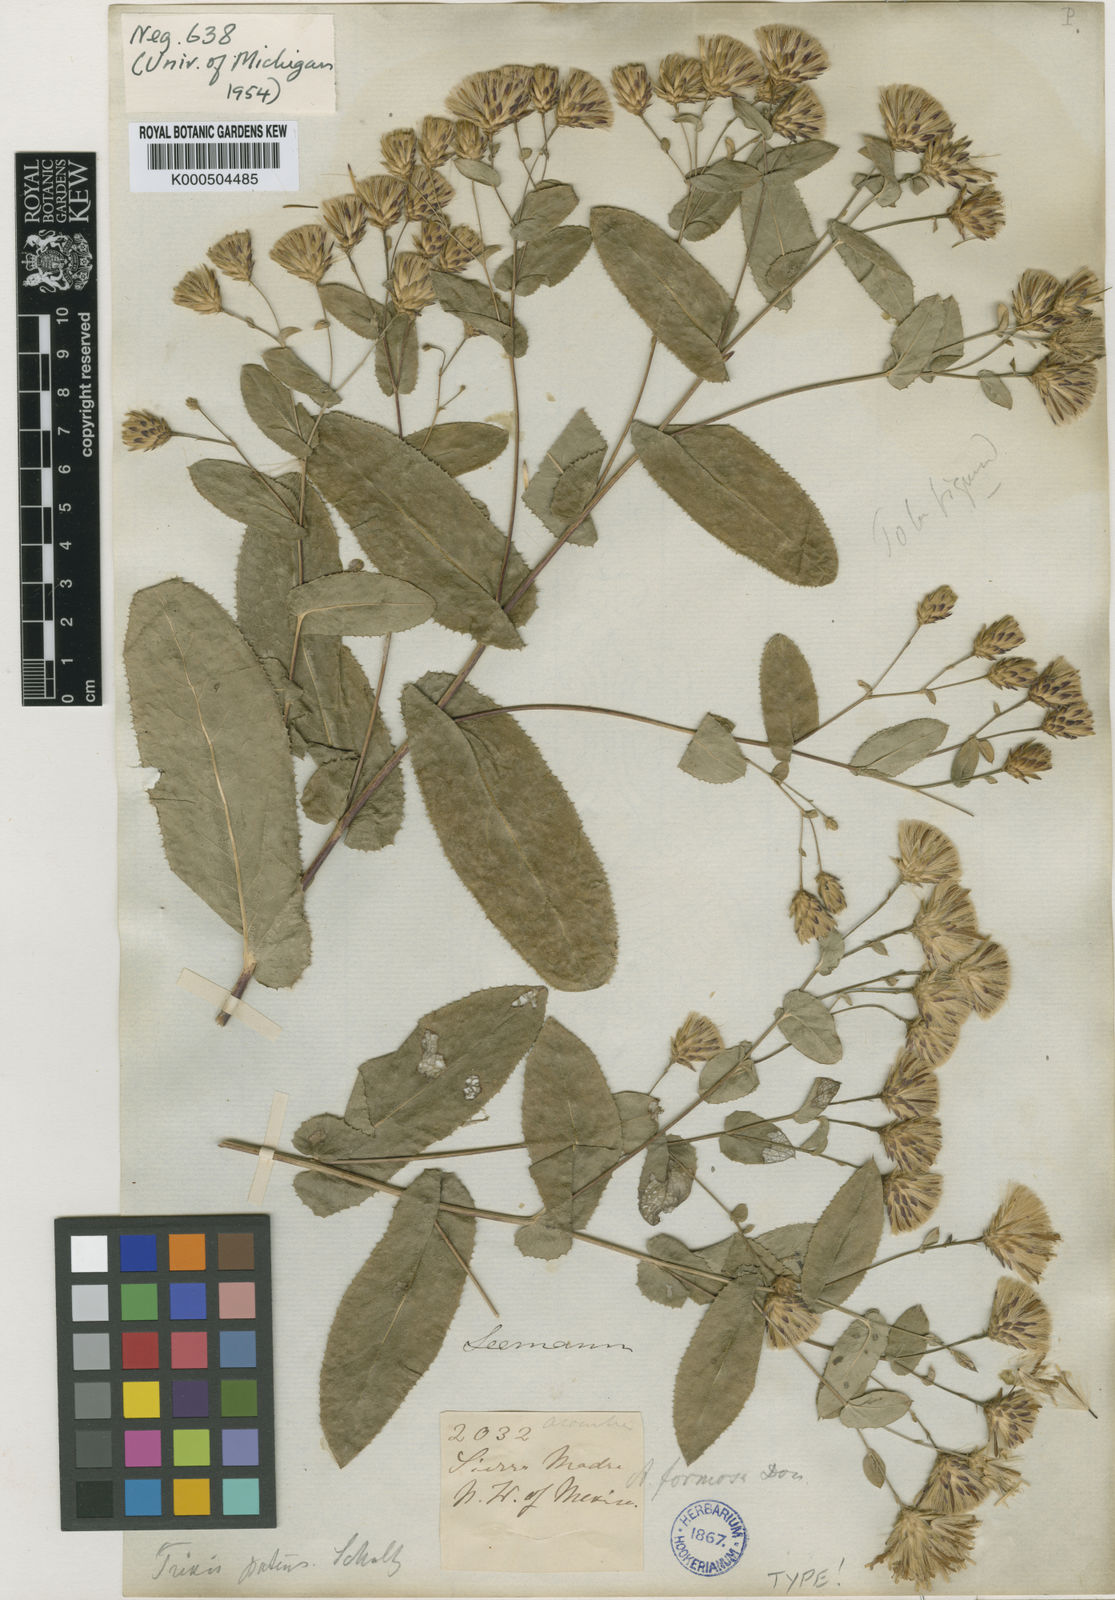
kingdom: Plantae
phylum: Tracheophyta
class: Magnoliopsida
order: Asterales
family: Asteraceae
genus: Acourtia
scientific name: Acourtia patens
